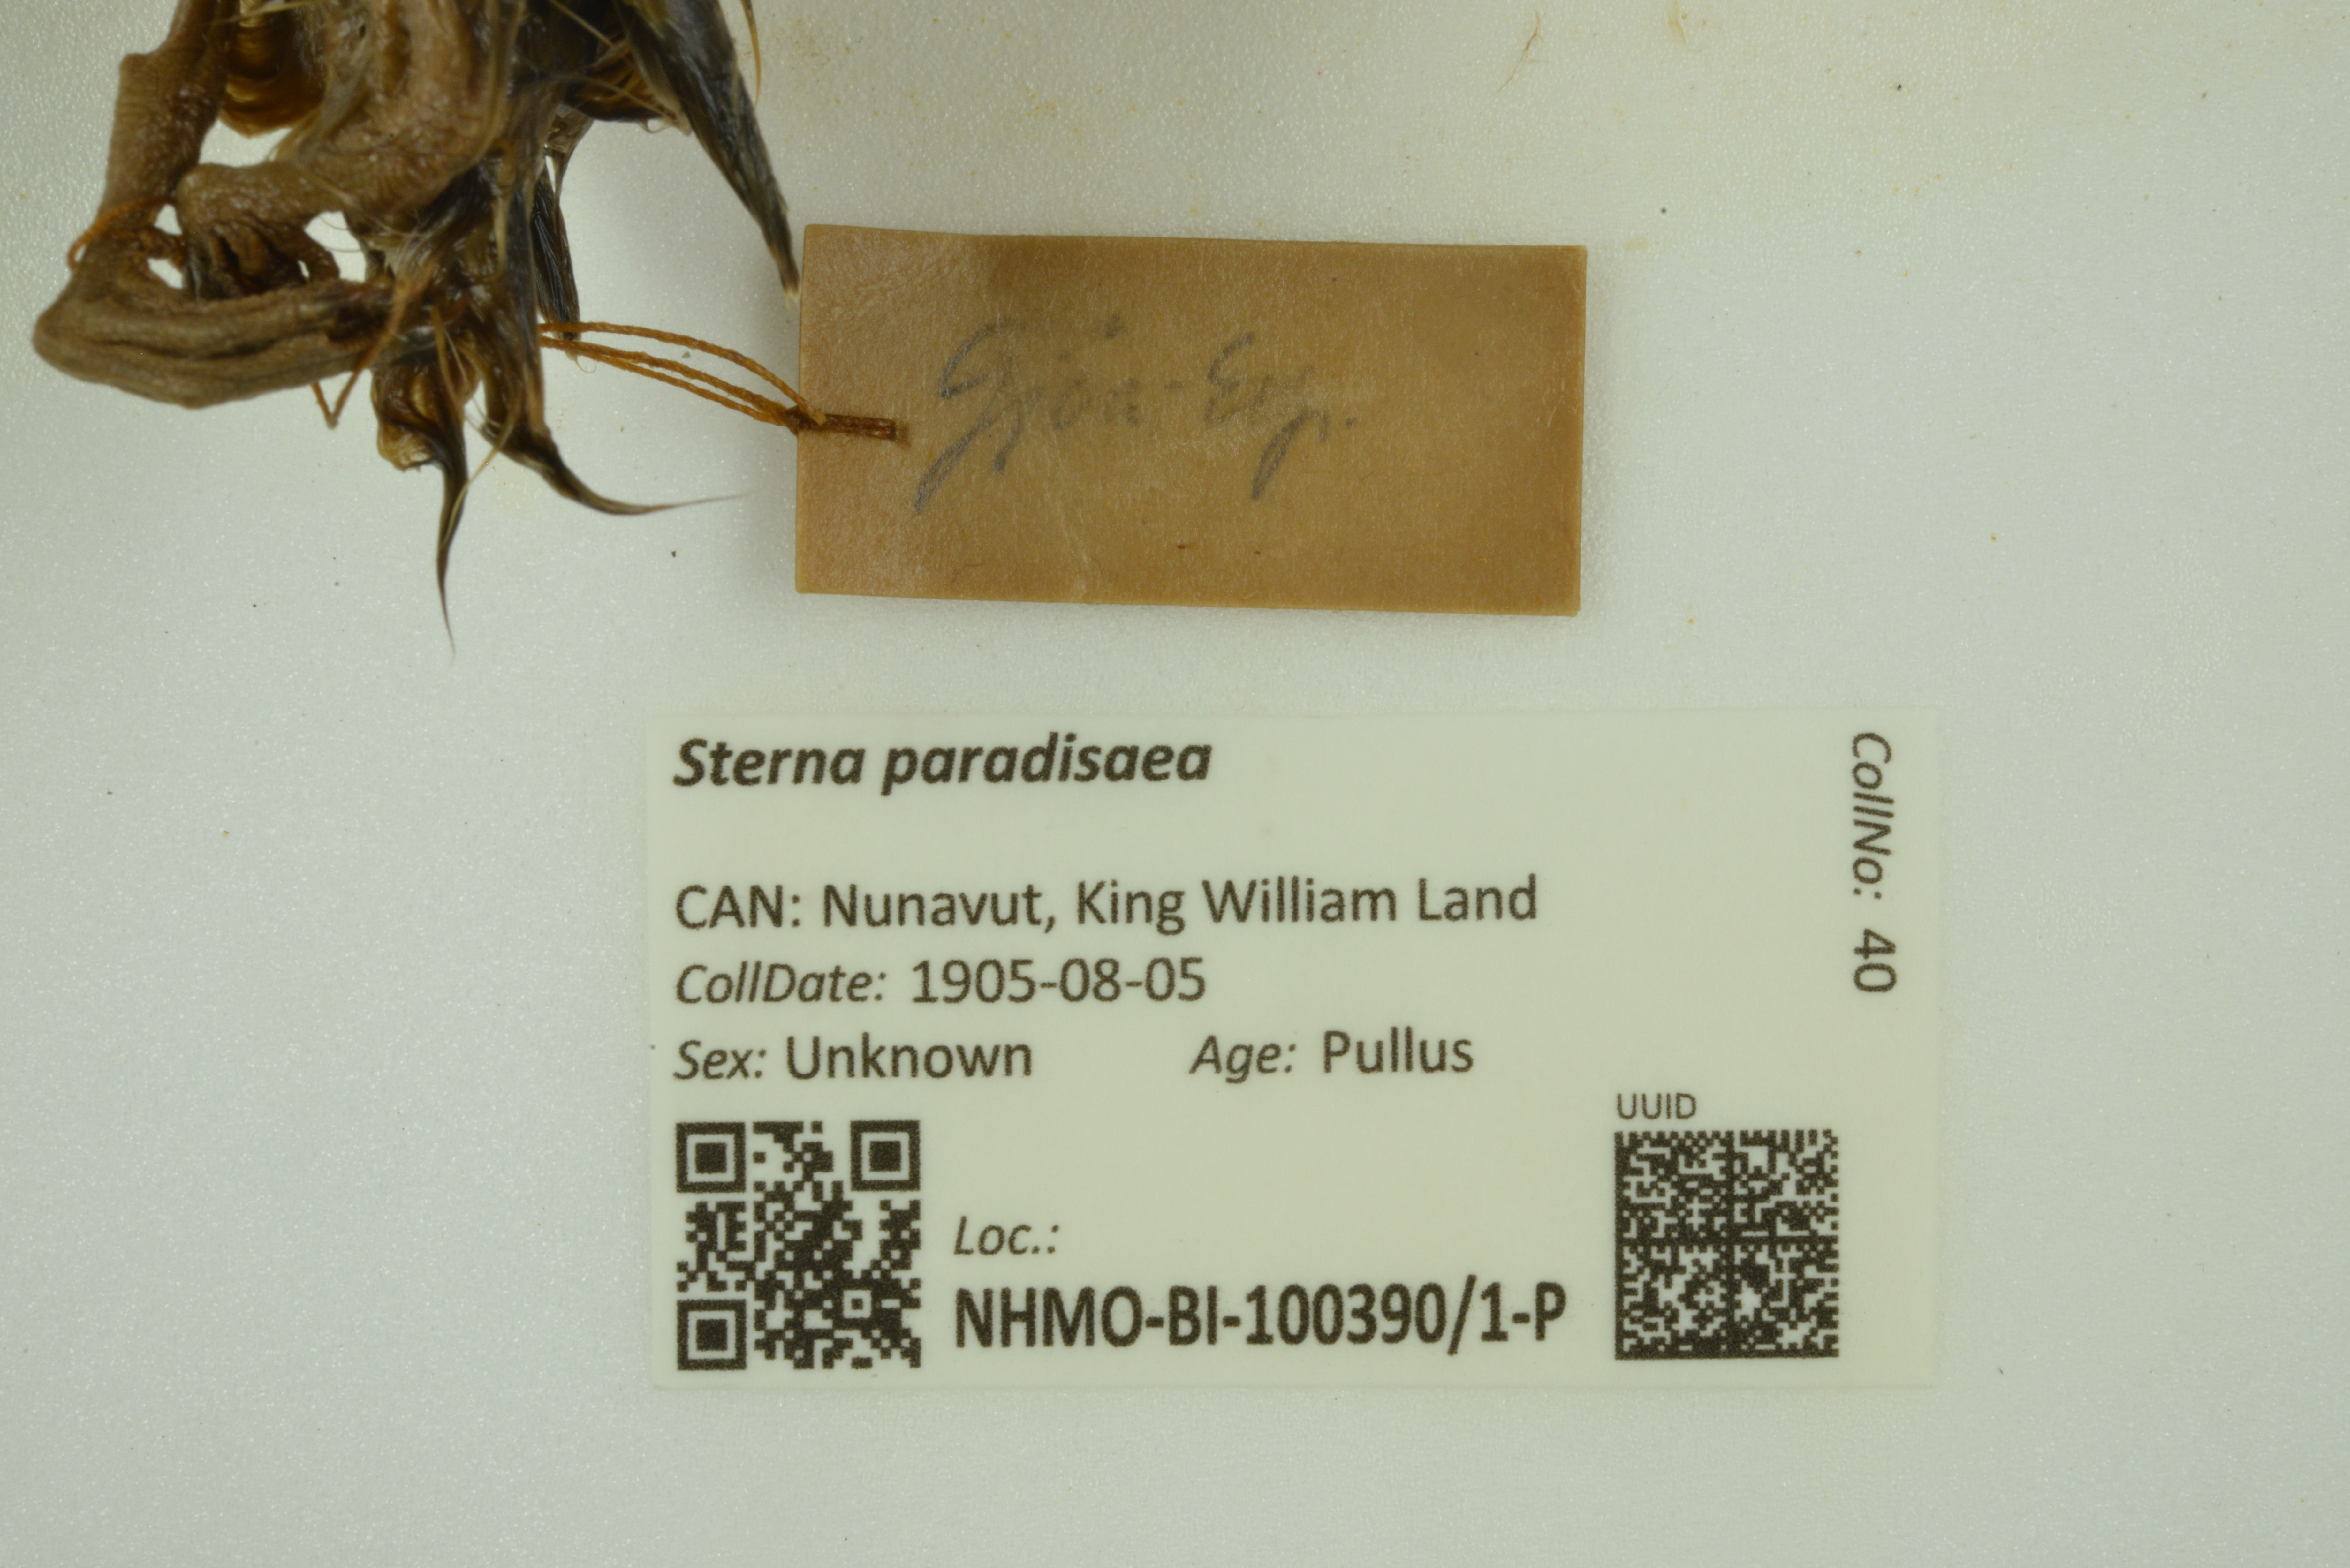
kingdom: Animalia
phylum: Chordata
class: Aves
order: Charadriiformes
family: Laridae
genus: Sterna
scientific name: Sterna paradisaea
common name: Arctic tern
